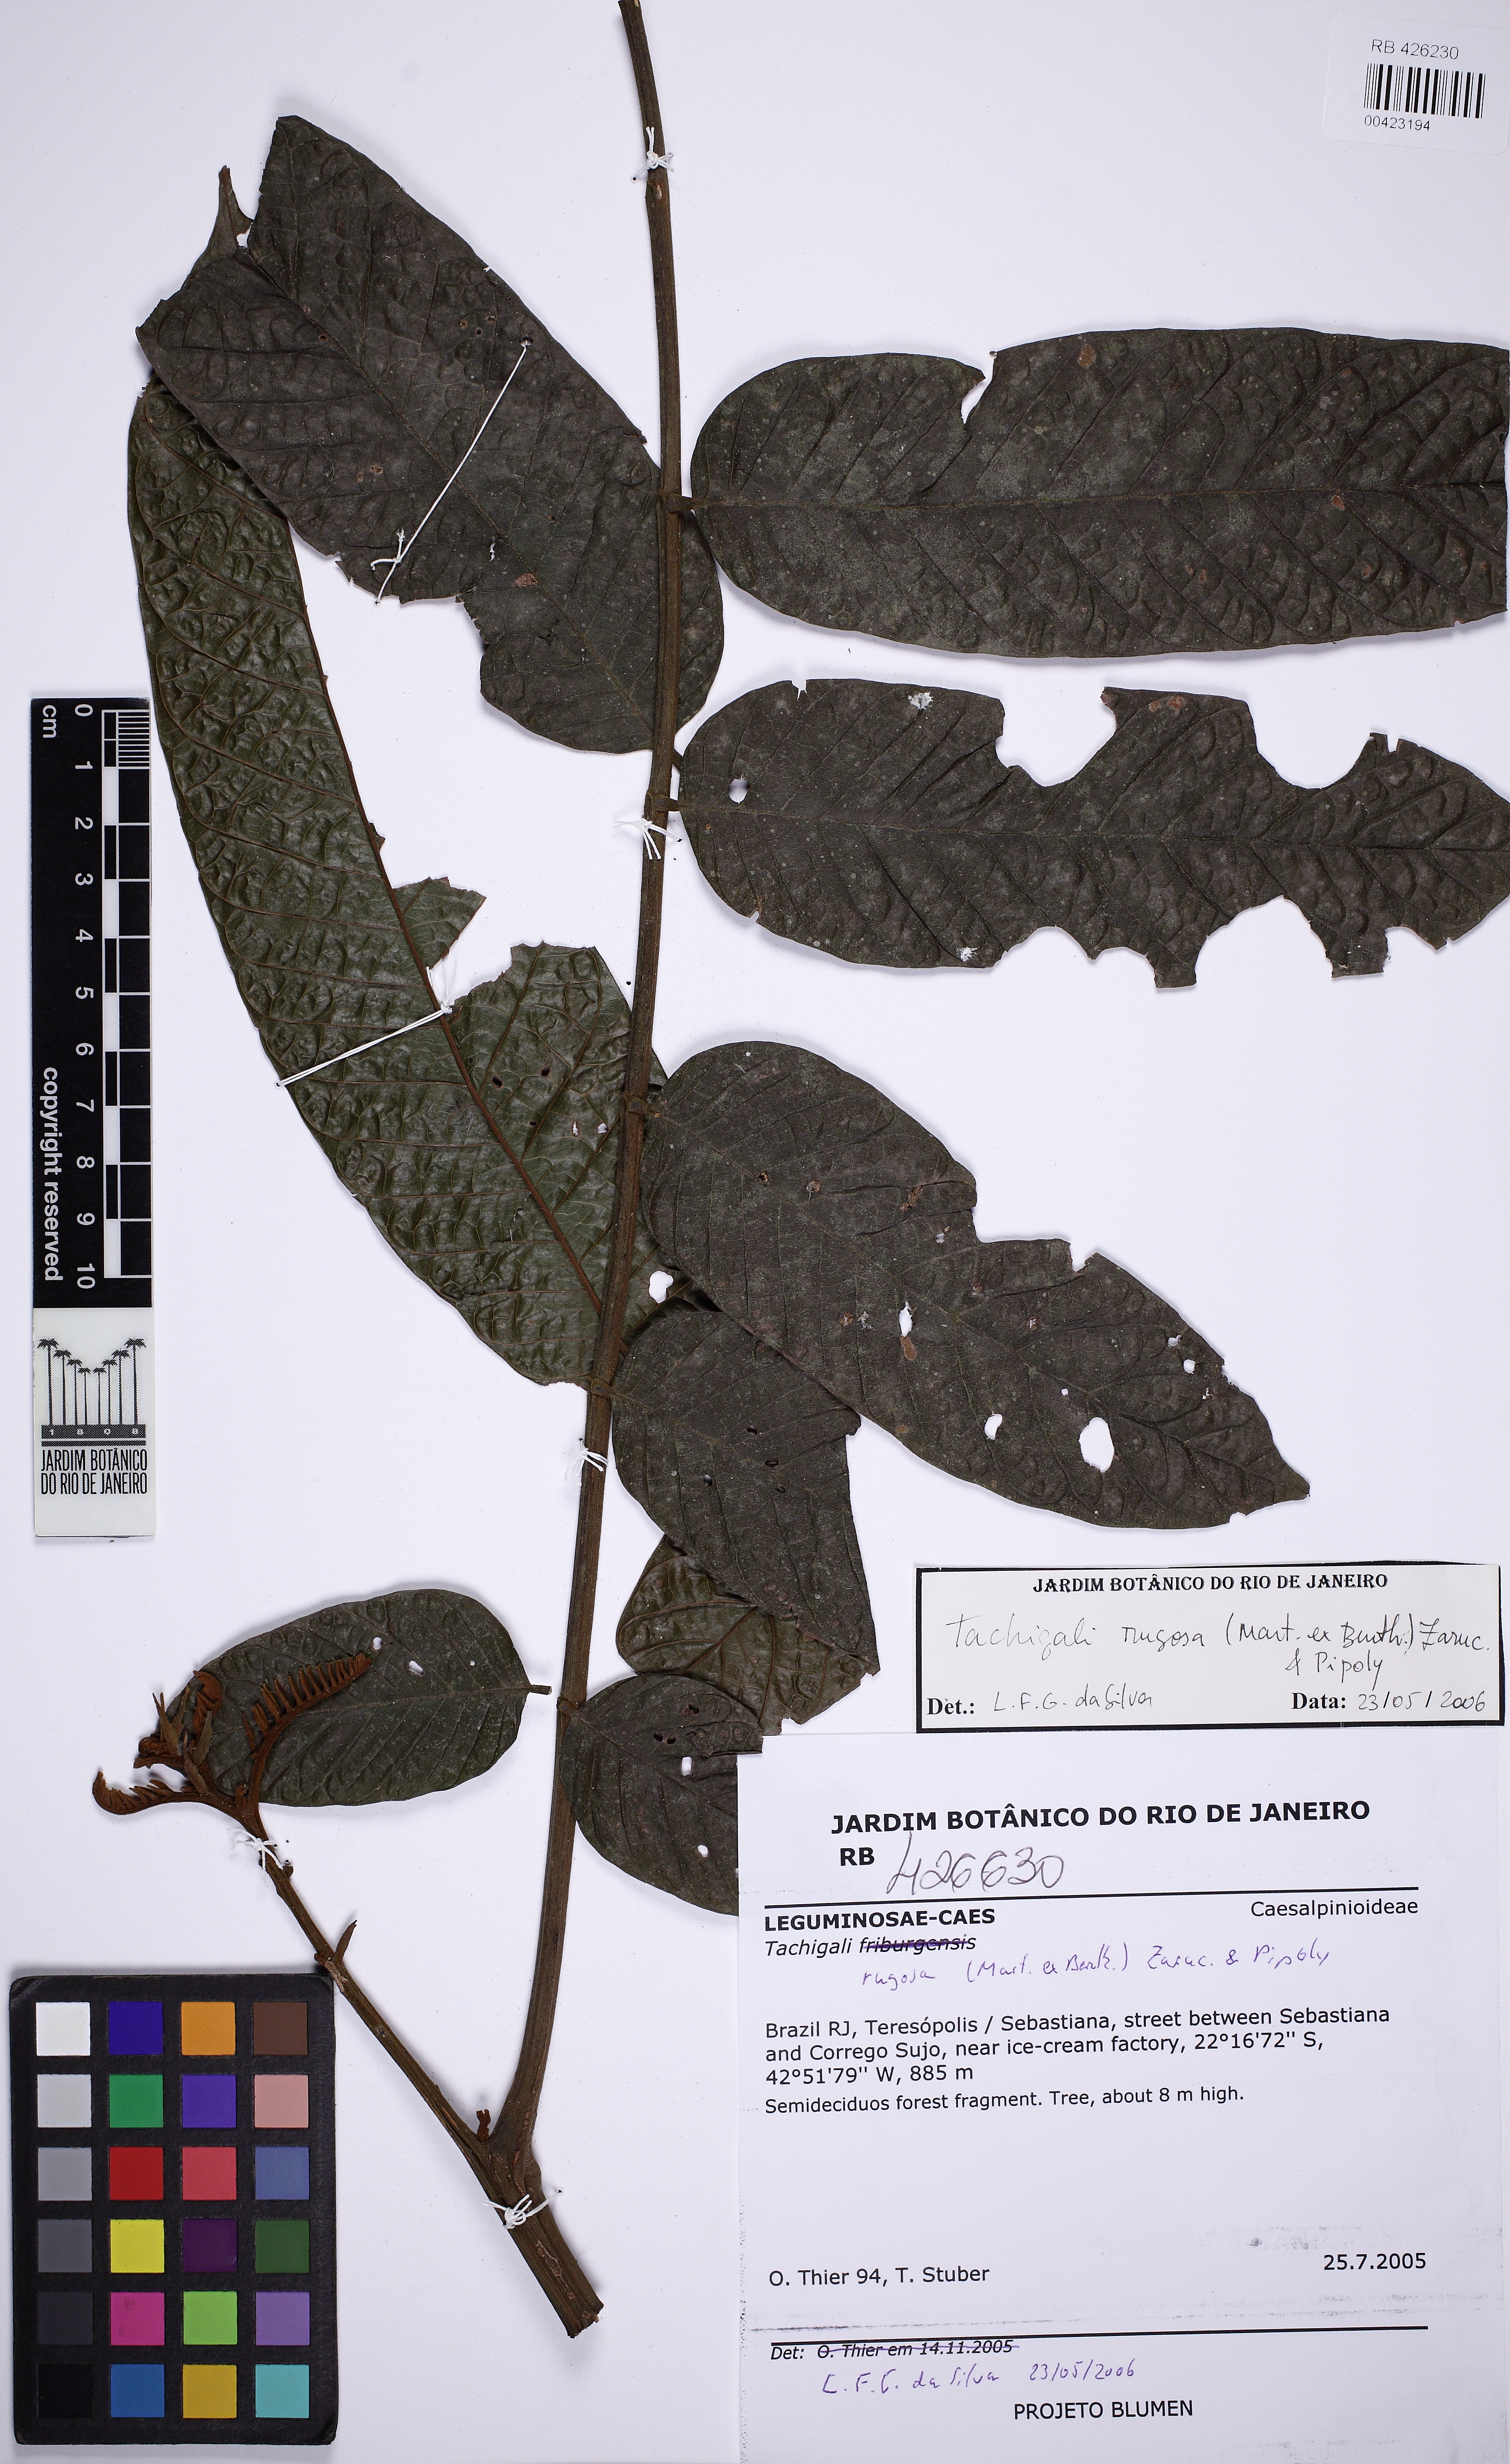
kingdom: Plantae
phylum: Tracheophyta
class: Magnoliopsida
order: Fabales
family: Fabaceae
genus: Tachigali
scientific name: Tachigali rugosa
